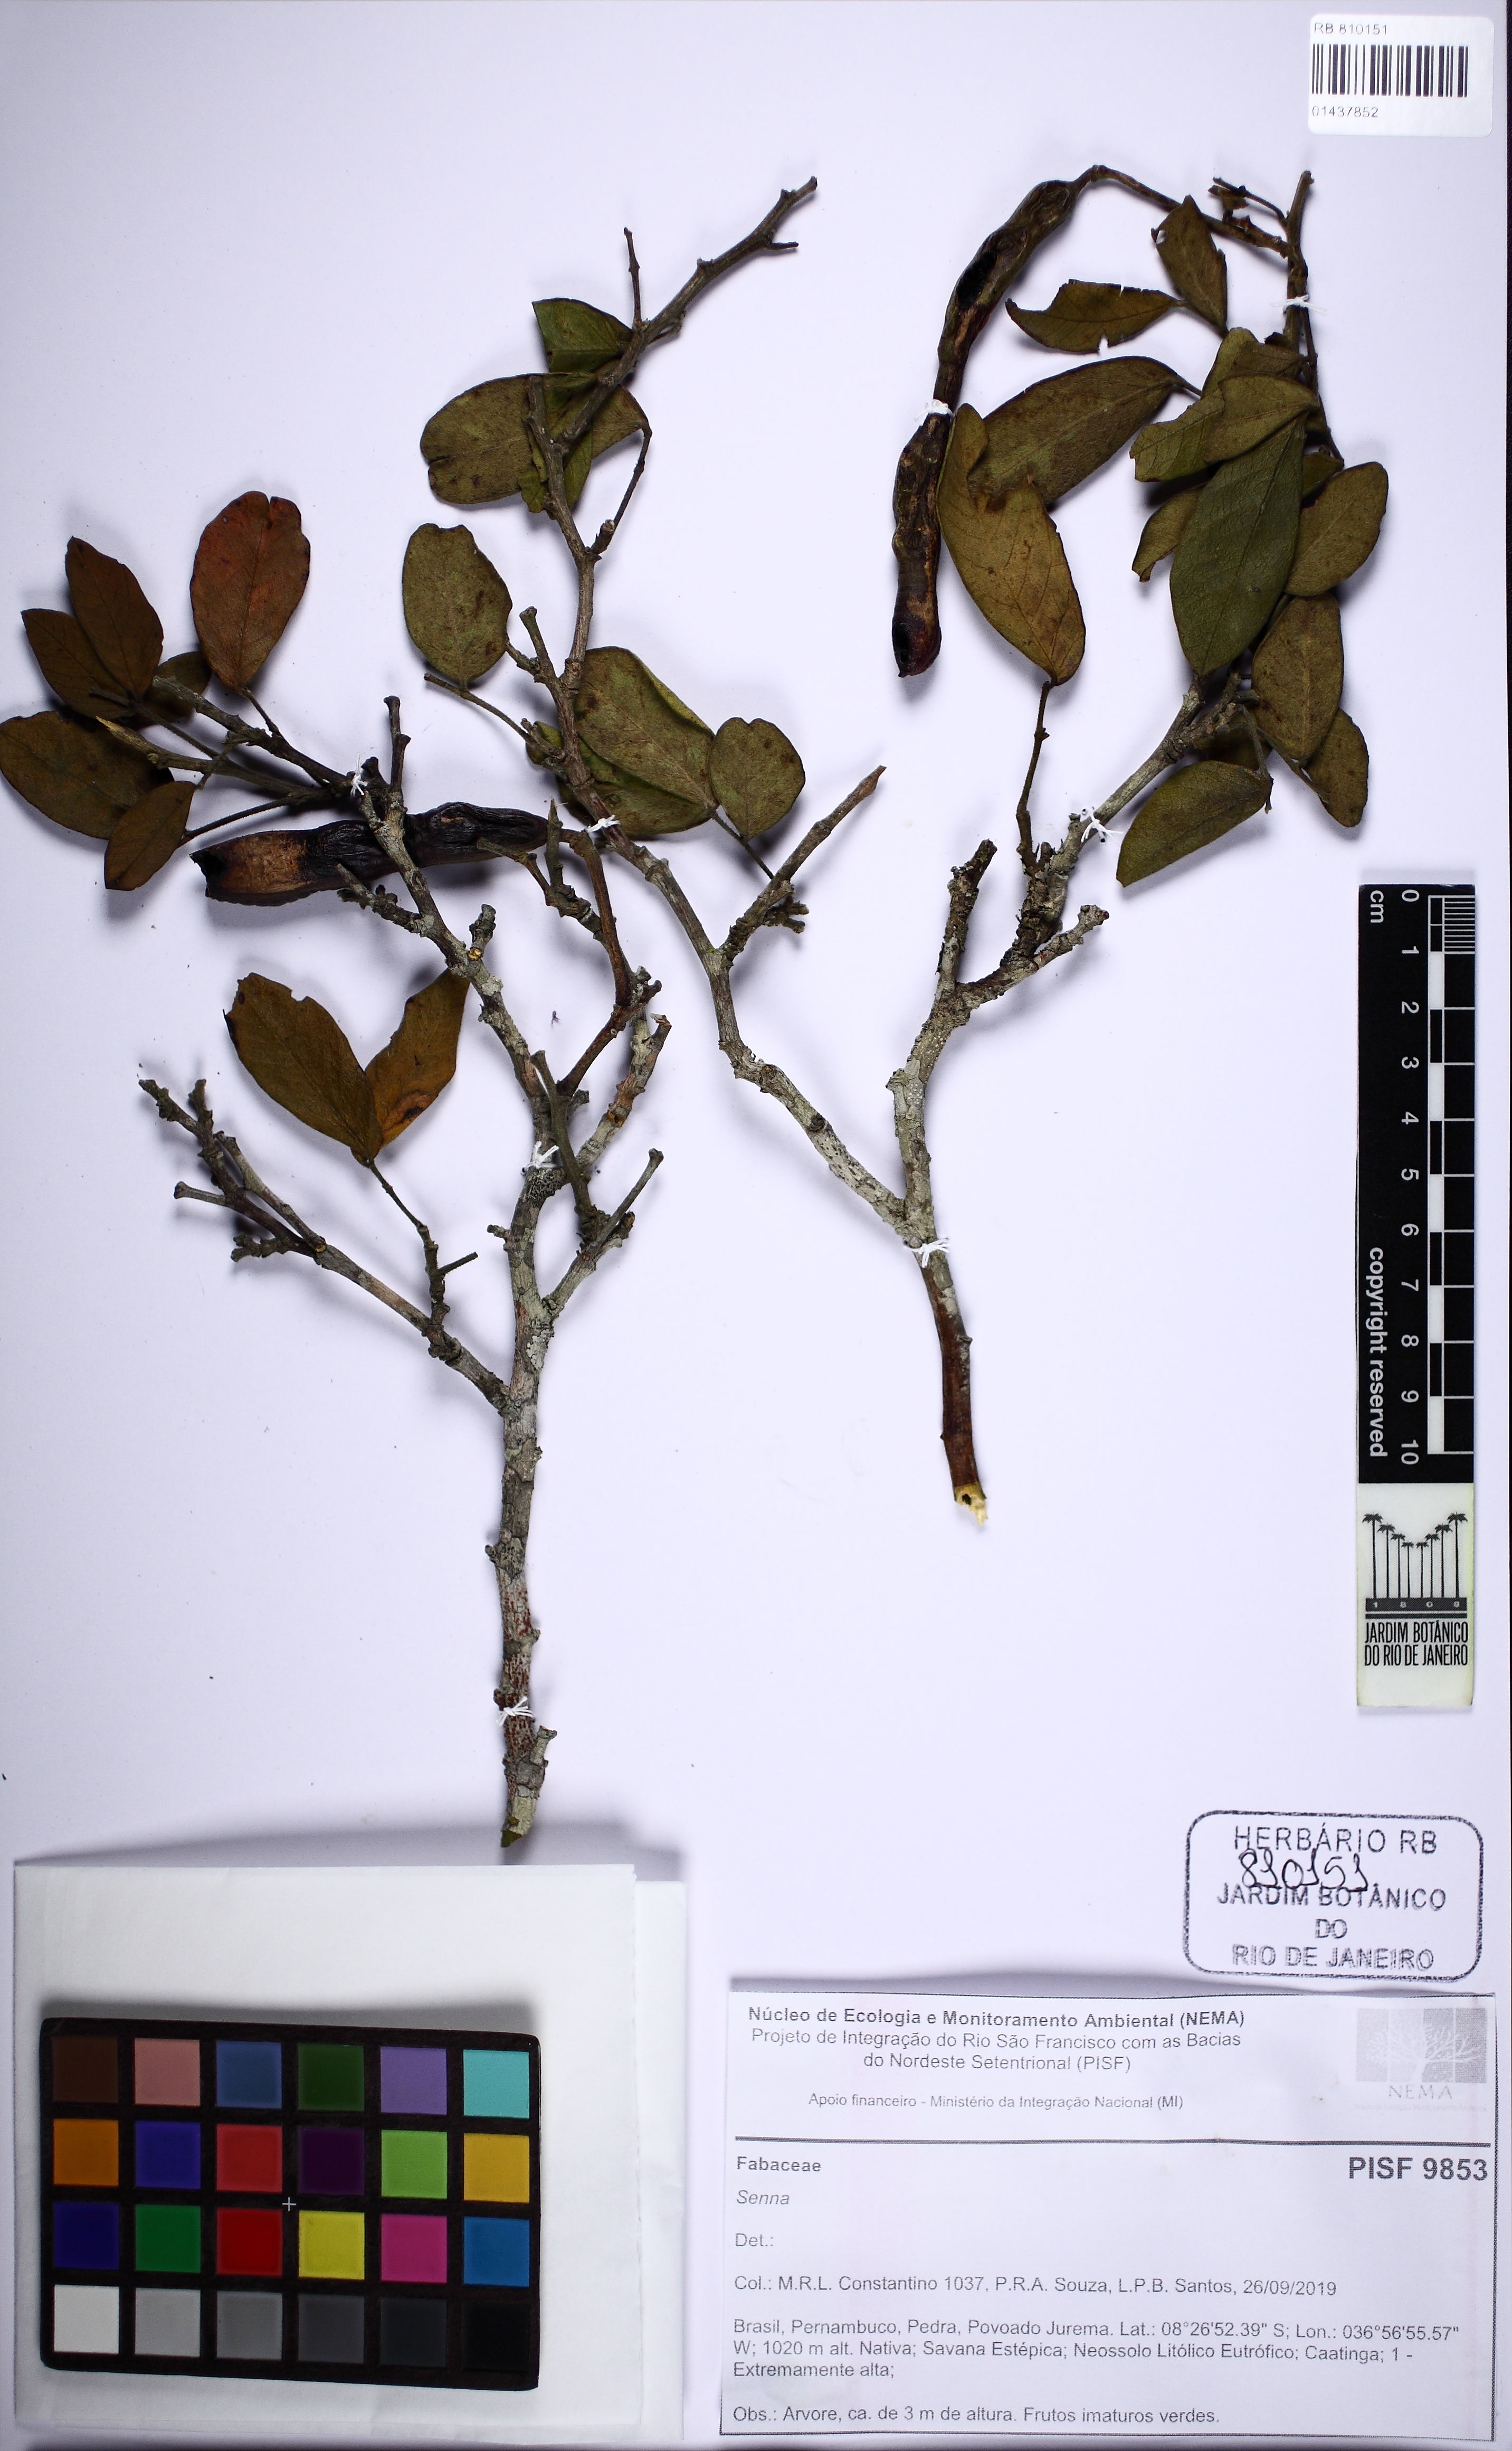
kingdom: Plantae
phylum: Tracheophyta
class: Magnoliopsida
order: Fabales
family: Fabaceae
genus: Senna
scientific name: Senna
